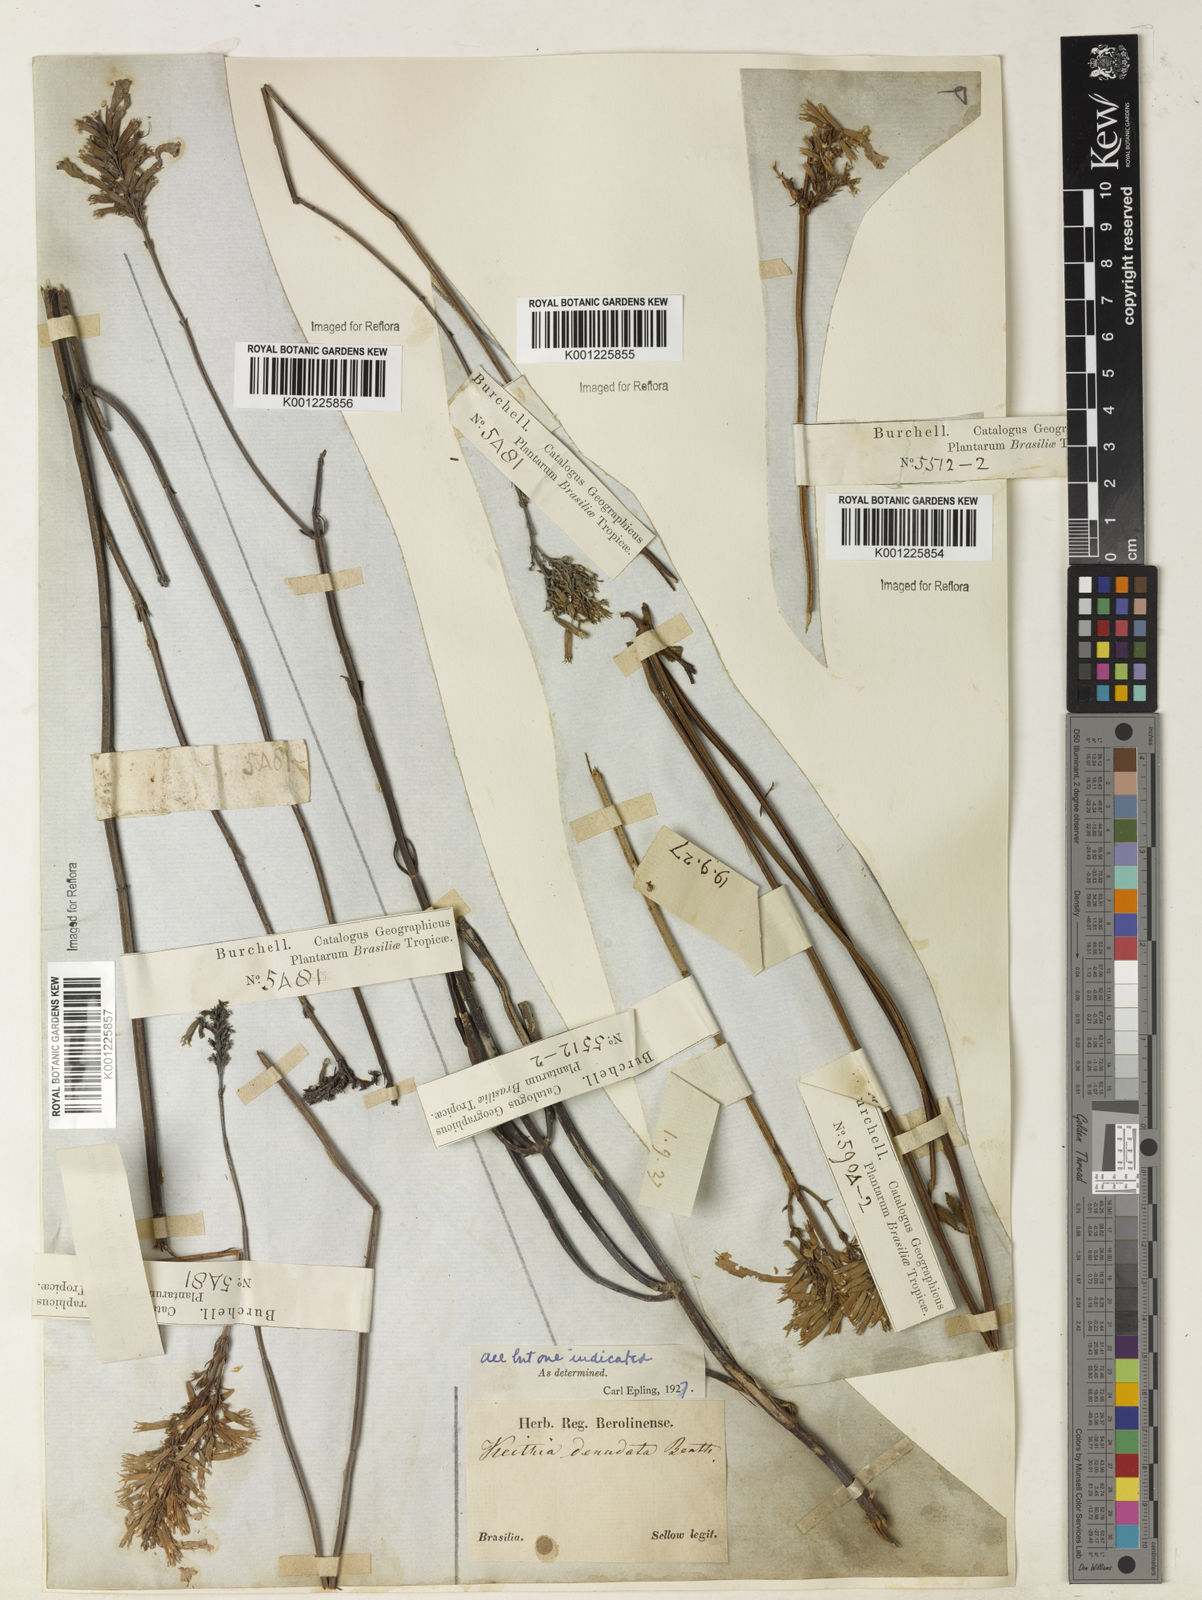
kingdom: Plantae
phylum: Tracheophyta
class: Magnoliopsida
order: Lamiales
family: Lamiaceae
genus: Rhabdocaulon
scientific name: Rhabdocaulon denudatum
